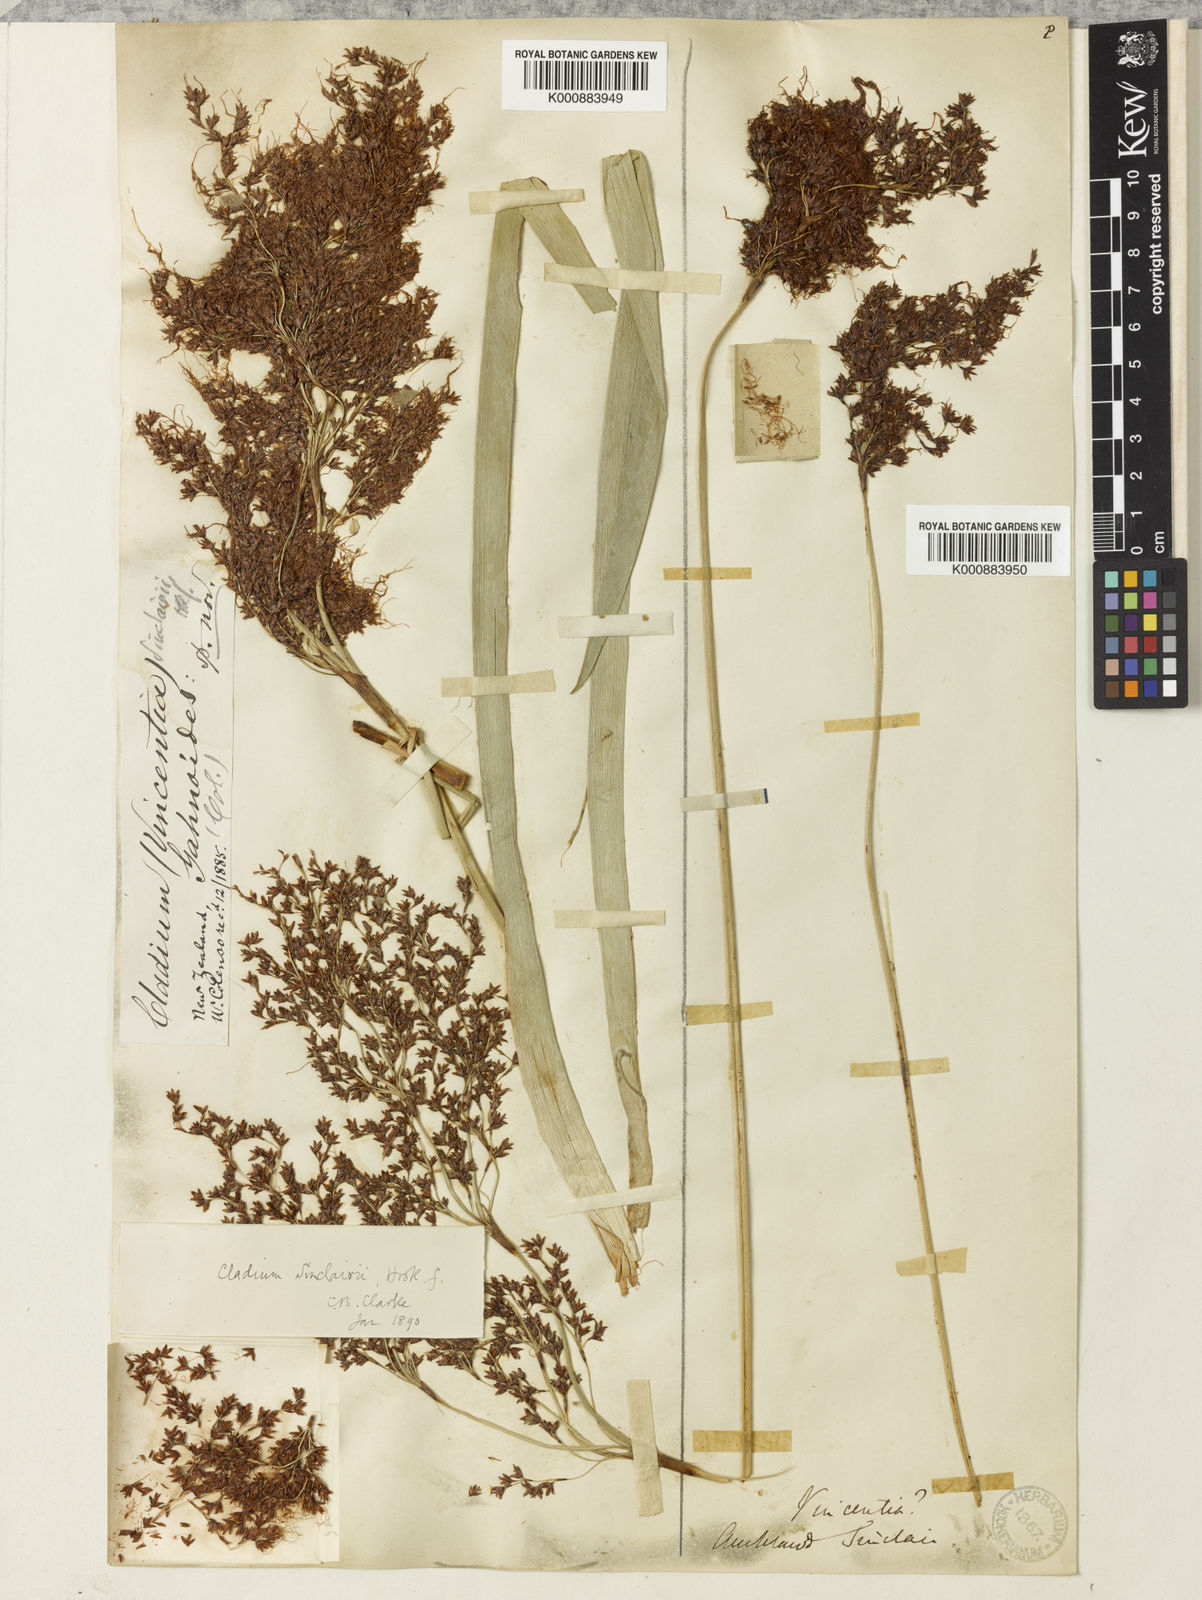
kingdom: Plantae
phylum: Tracheophyta
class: Liliopsida
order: Poales
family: Cyperaceae
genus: Machaerina
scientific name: Machaerina sinclairii
